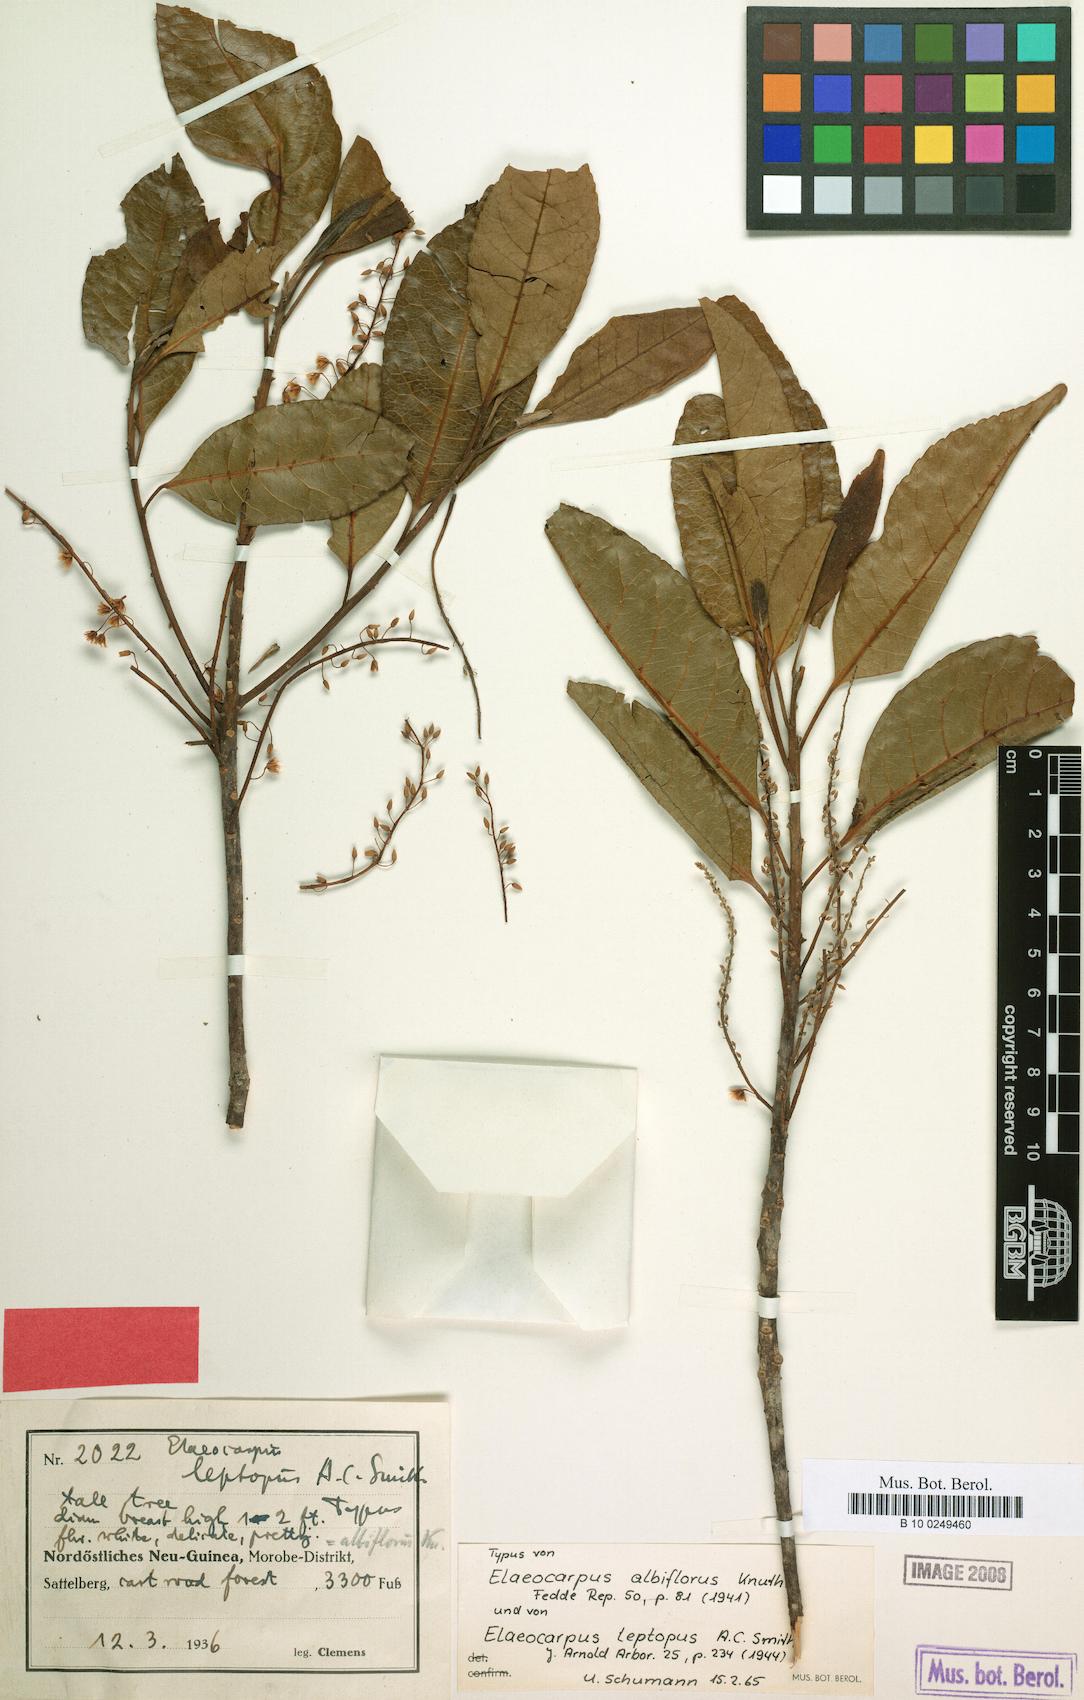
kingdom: Plantae
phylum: Tracheophyta
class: Magnoliopsida
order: Oxalidales
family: Elaeocarpaceae
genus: Elaeocarpus
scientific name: Elaeocarpus polydactylus
